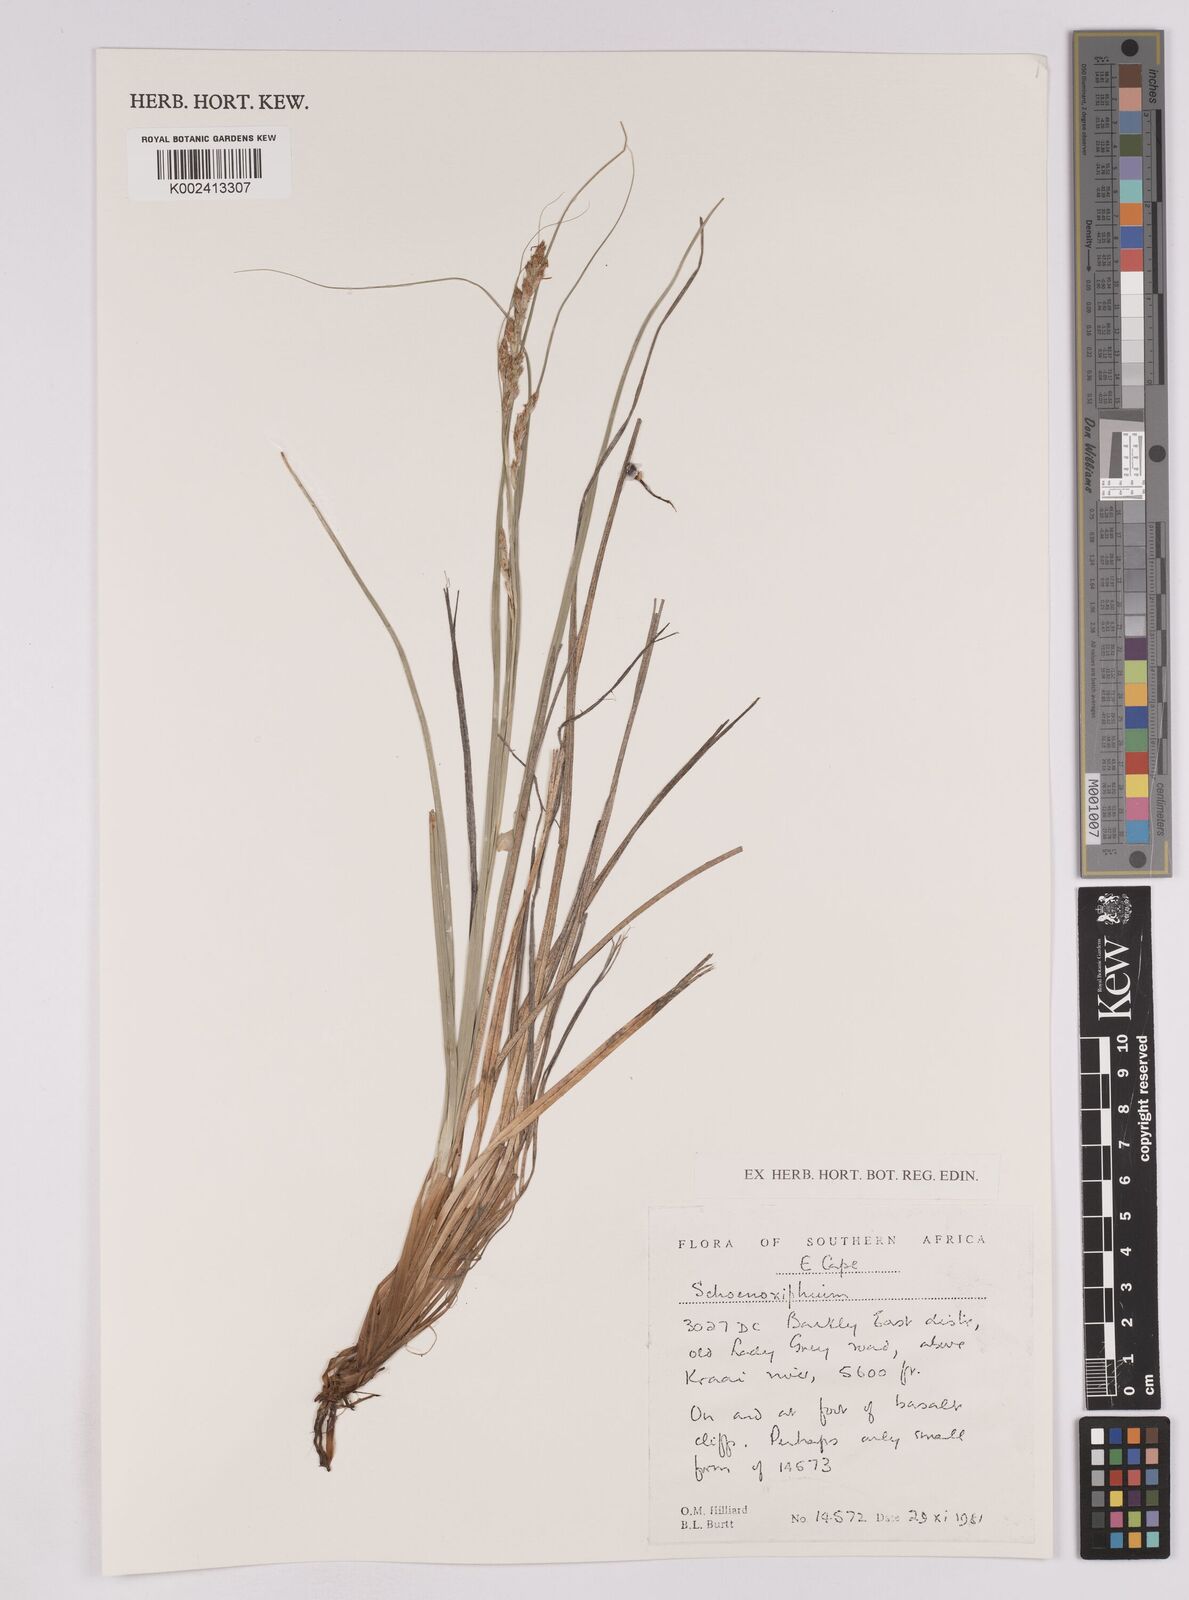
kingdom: Plantae
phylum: Tracheophyta
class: Liliopsida
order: Poales
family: Cyperaceae
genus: Carex
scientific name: Carex
